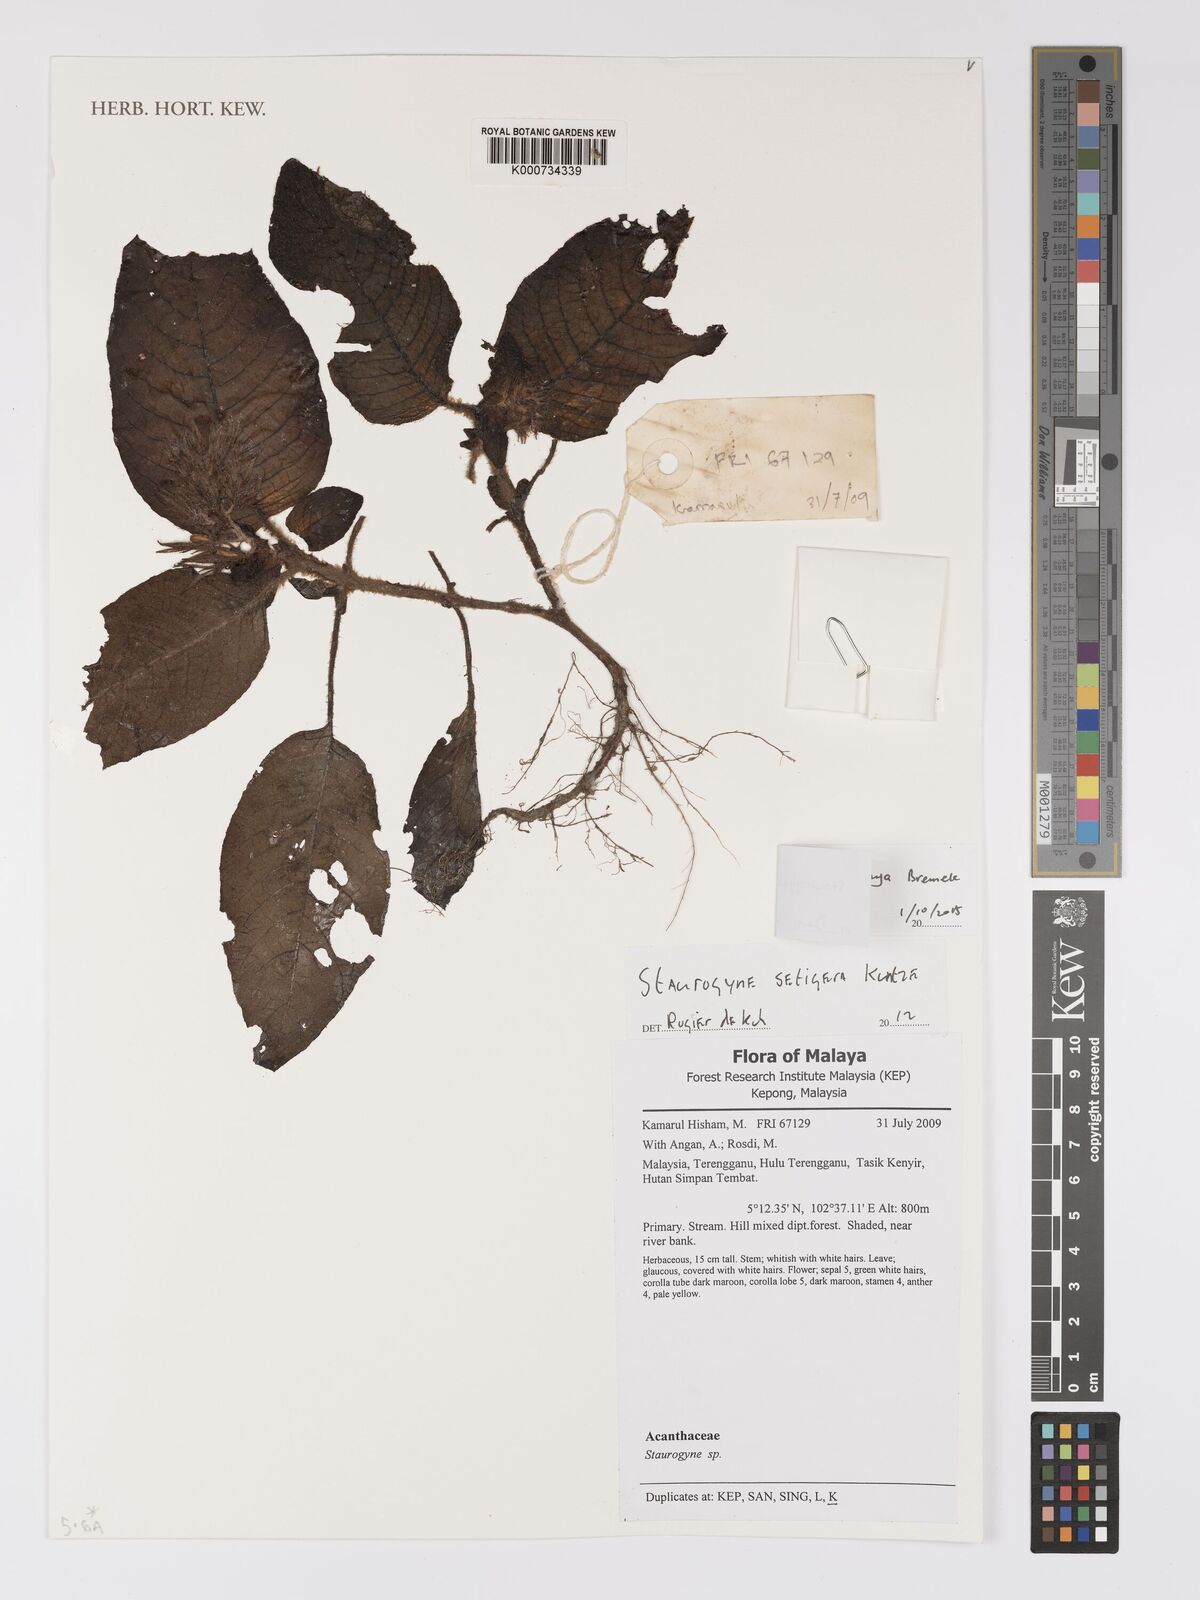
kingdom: Plantae
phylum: Tracheophyta
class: Magnoliopsida
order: Lamiales
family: Acanthaceae
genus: Staurogyne
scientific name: Staurogyne comosa
